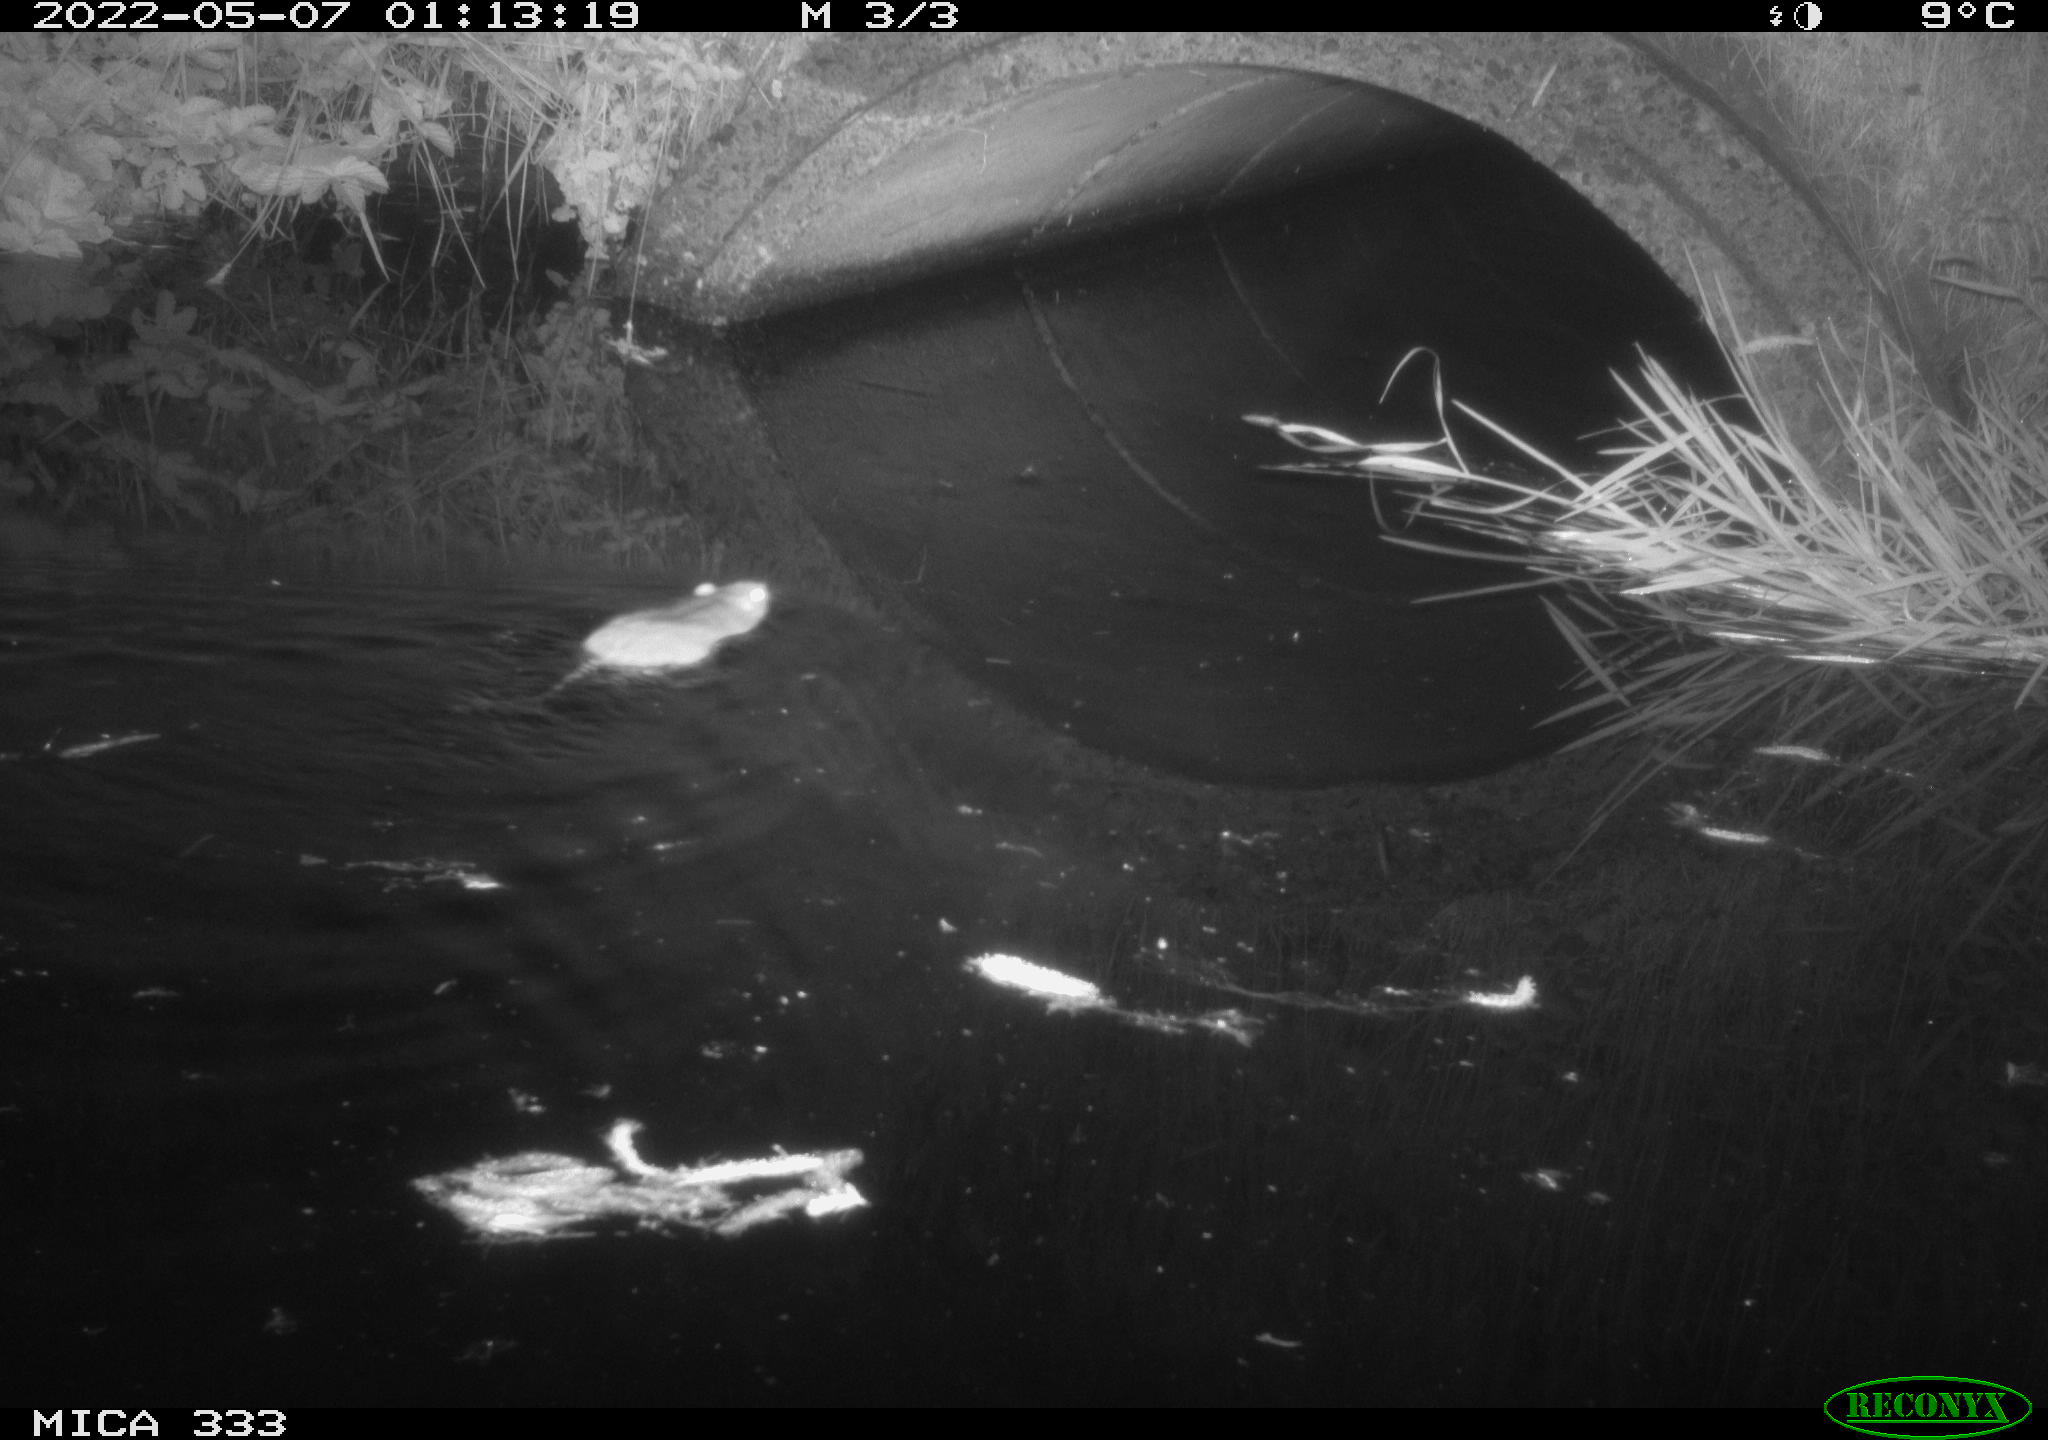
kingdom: Animalia
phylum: Chordata
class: Mammalia
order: Rodentia
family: Muridae
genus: Rattus
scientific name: Rattus norvegicus
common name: Brown rat
